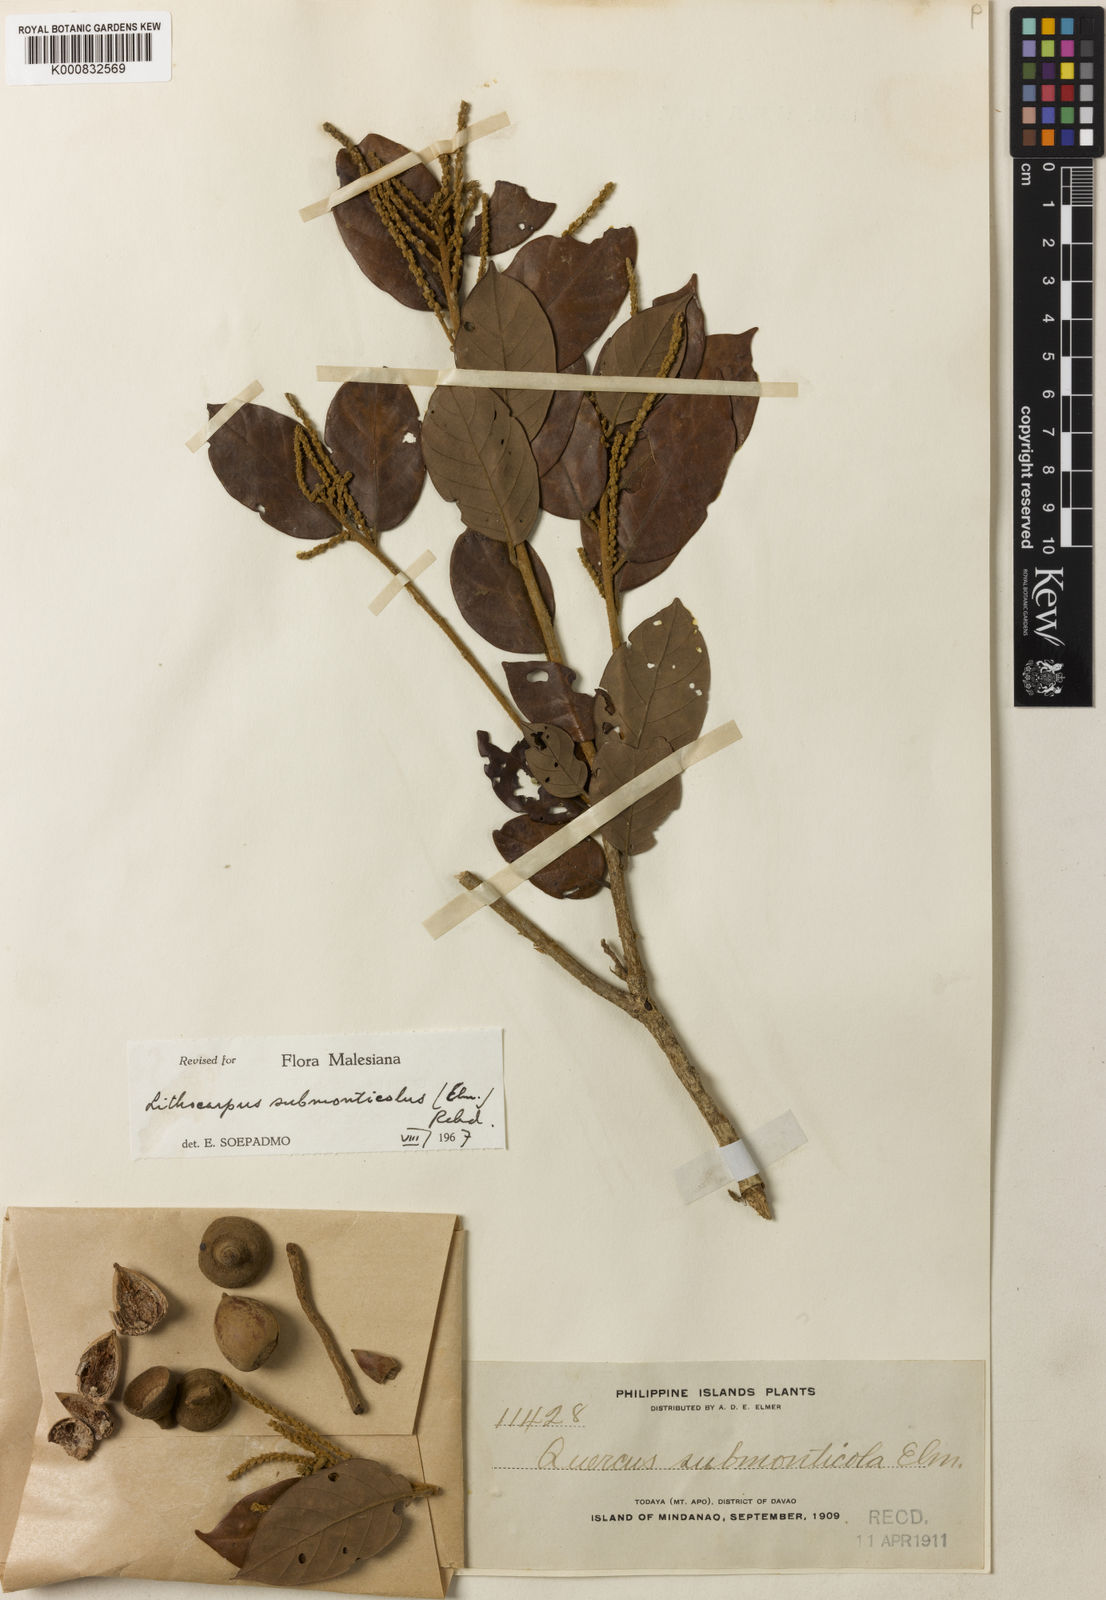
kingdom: Plantae
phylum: Tracheophyta
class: Magnoliopsida
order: Fagales
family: Fagaceae
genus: Lithocarpus
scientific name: Lithocarpus submonticola
